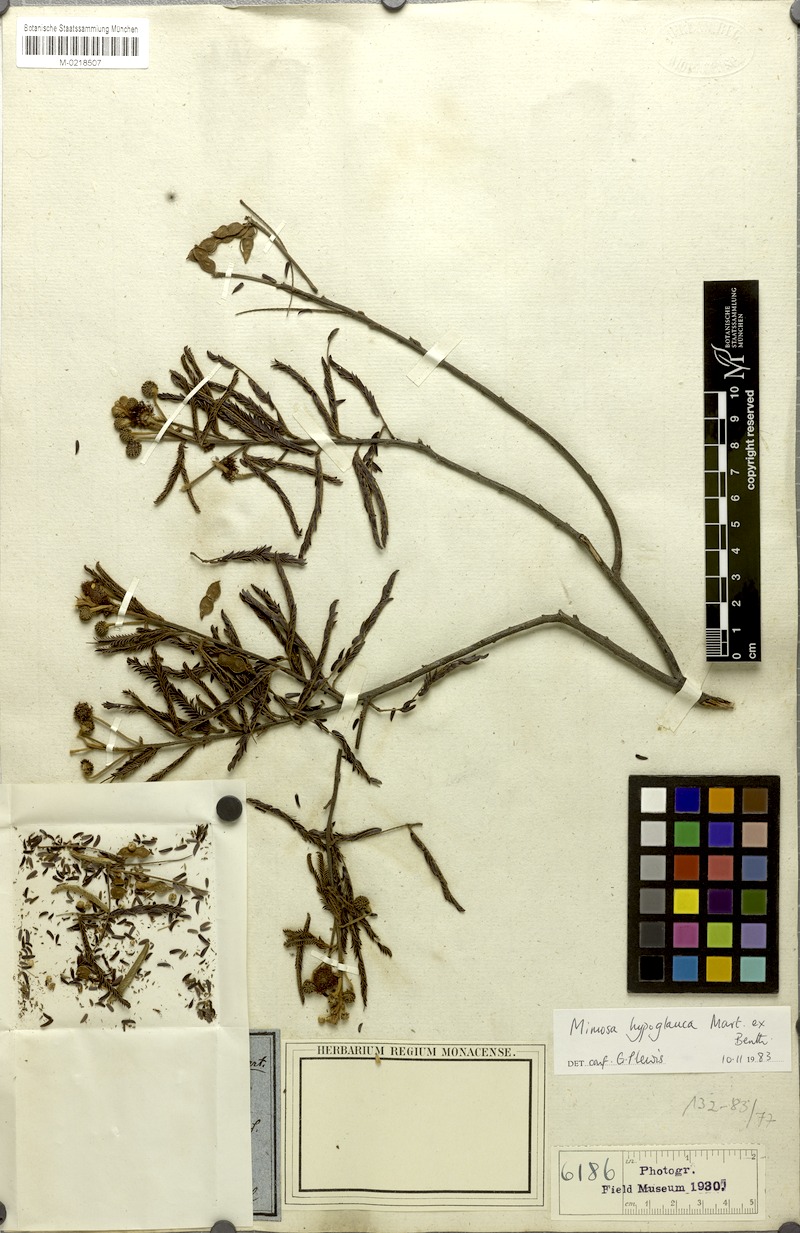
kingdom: Plantae
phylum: Tracheophyta
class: Magnoliopsida
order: Fabales
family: Fabaceae
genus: Mimosa
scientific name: Mimosa hypoglauca
